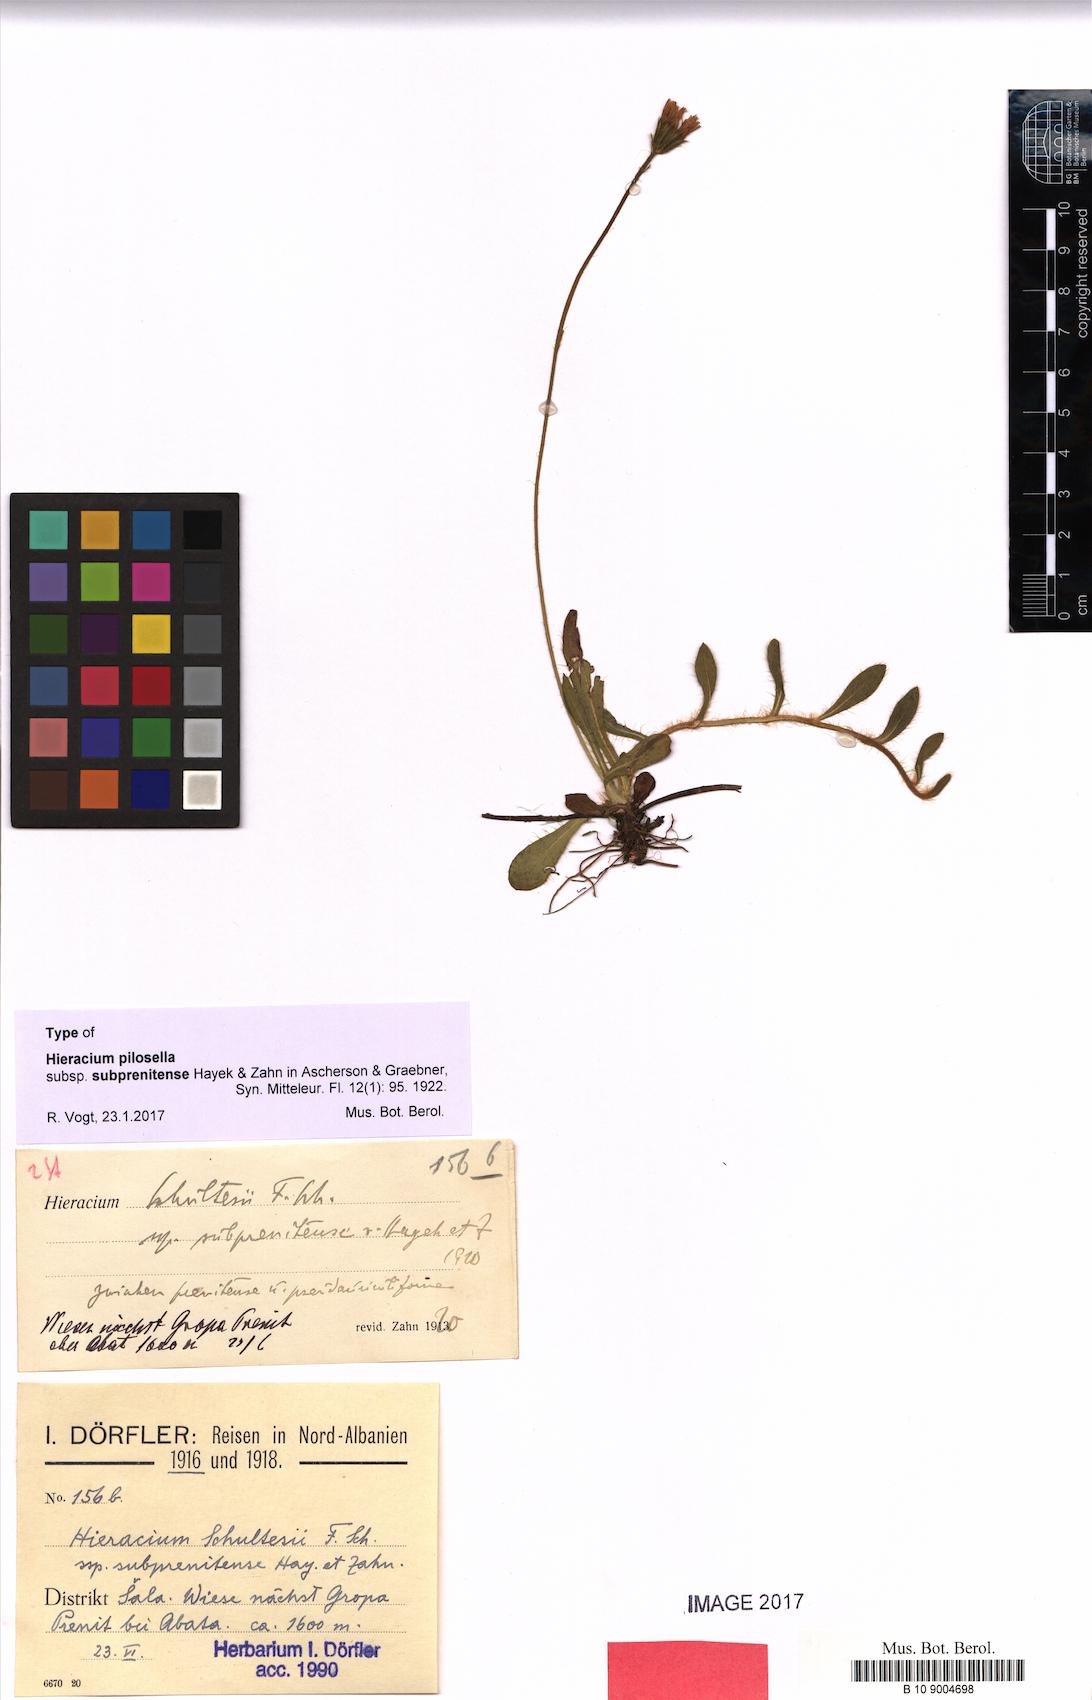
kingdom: Plantae
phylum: Tracheophyta
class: Magnoliopsida
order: Asterales
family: Asteraceae
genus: Pilosella
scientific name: Pilosella schultesii
